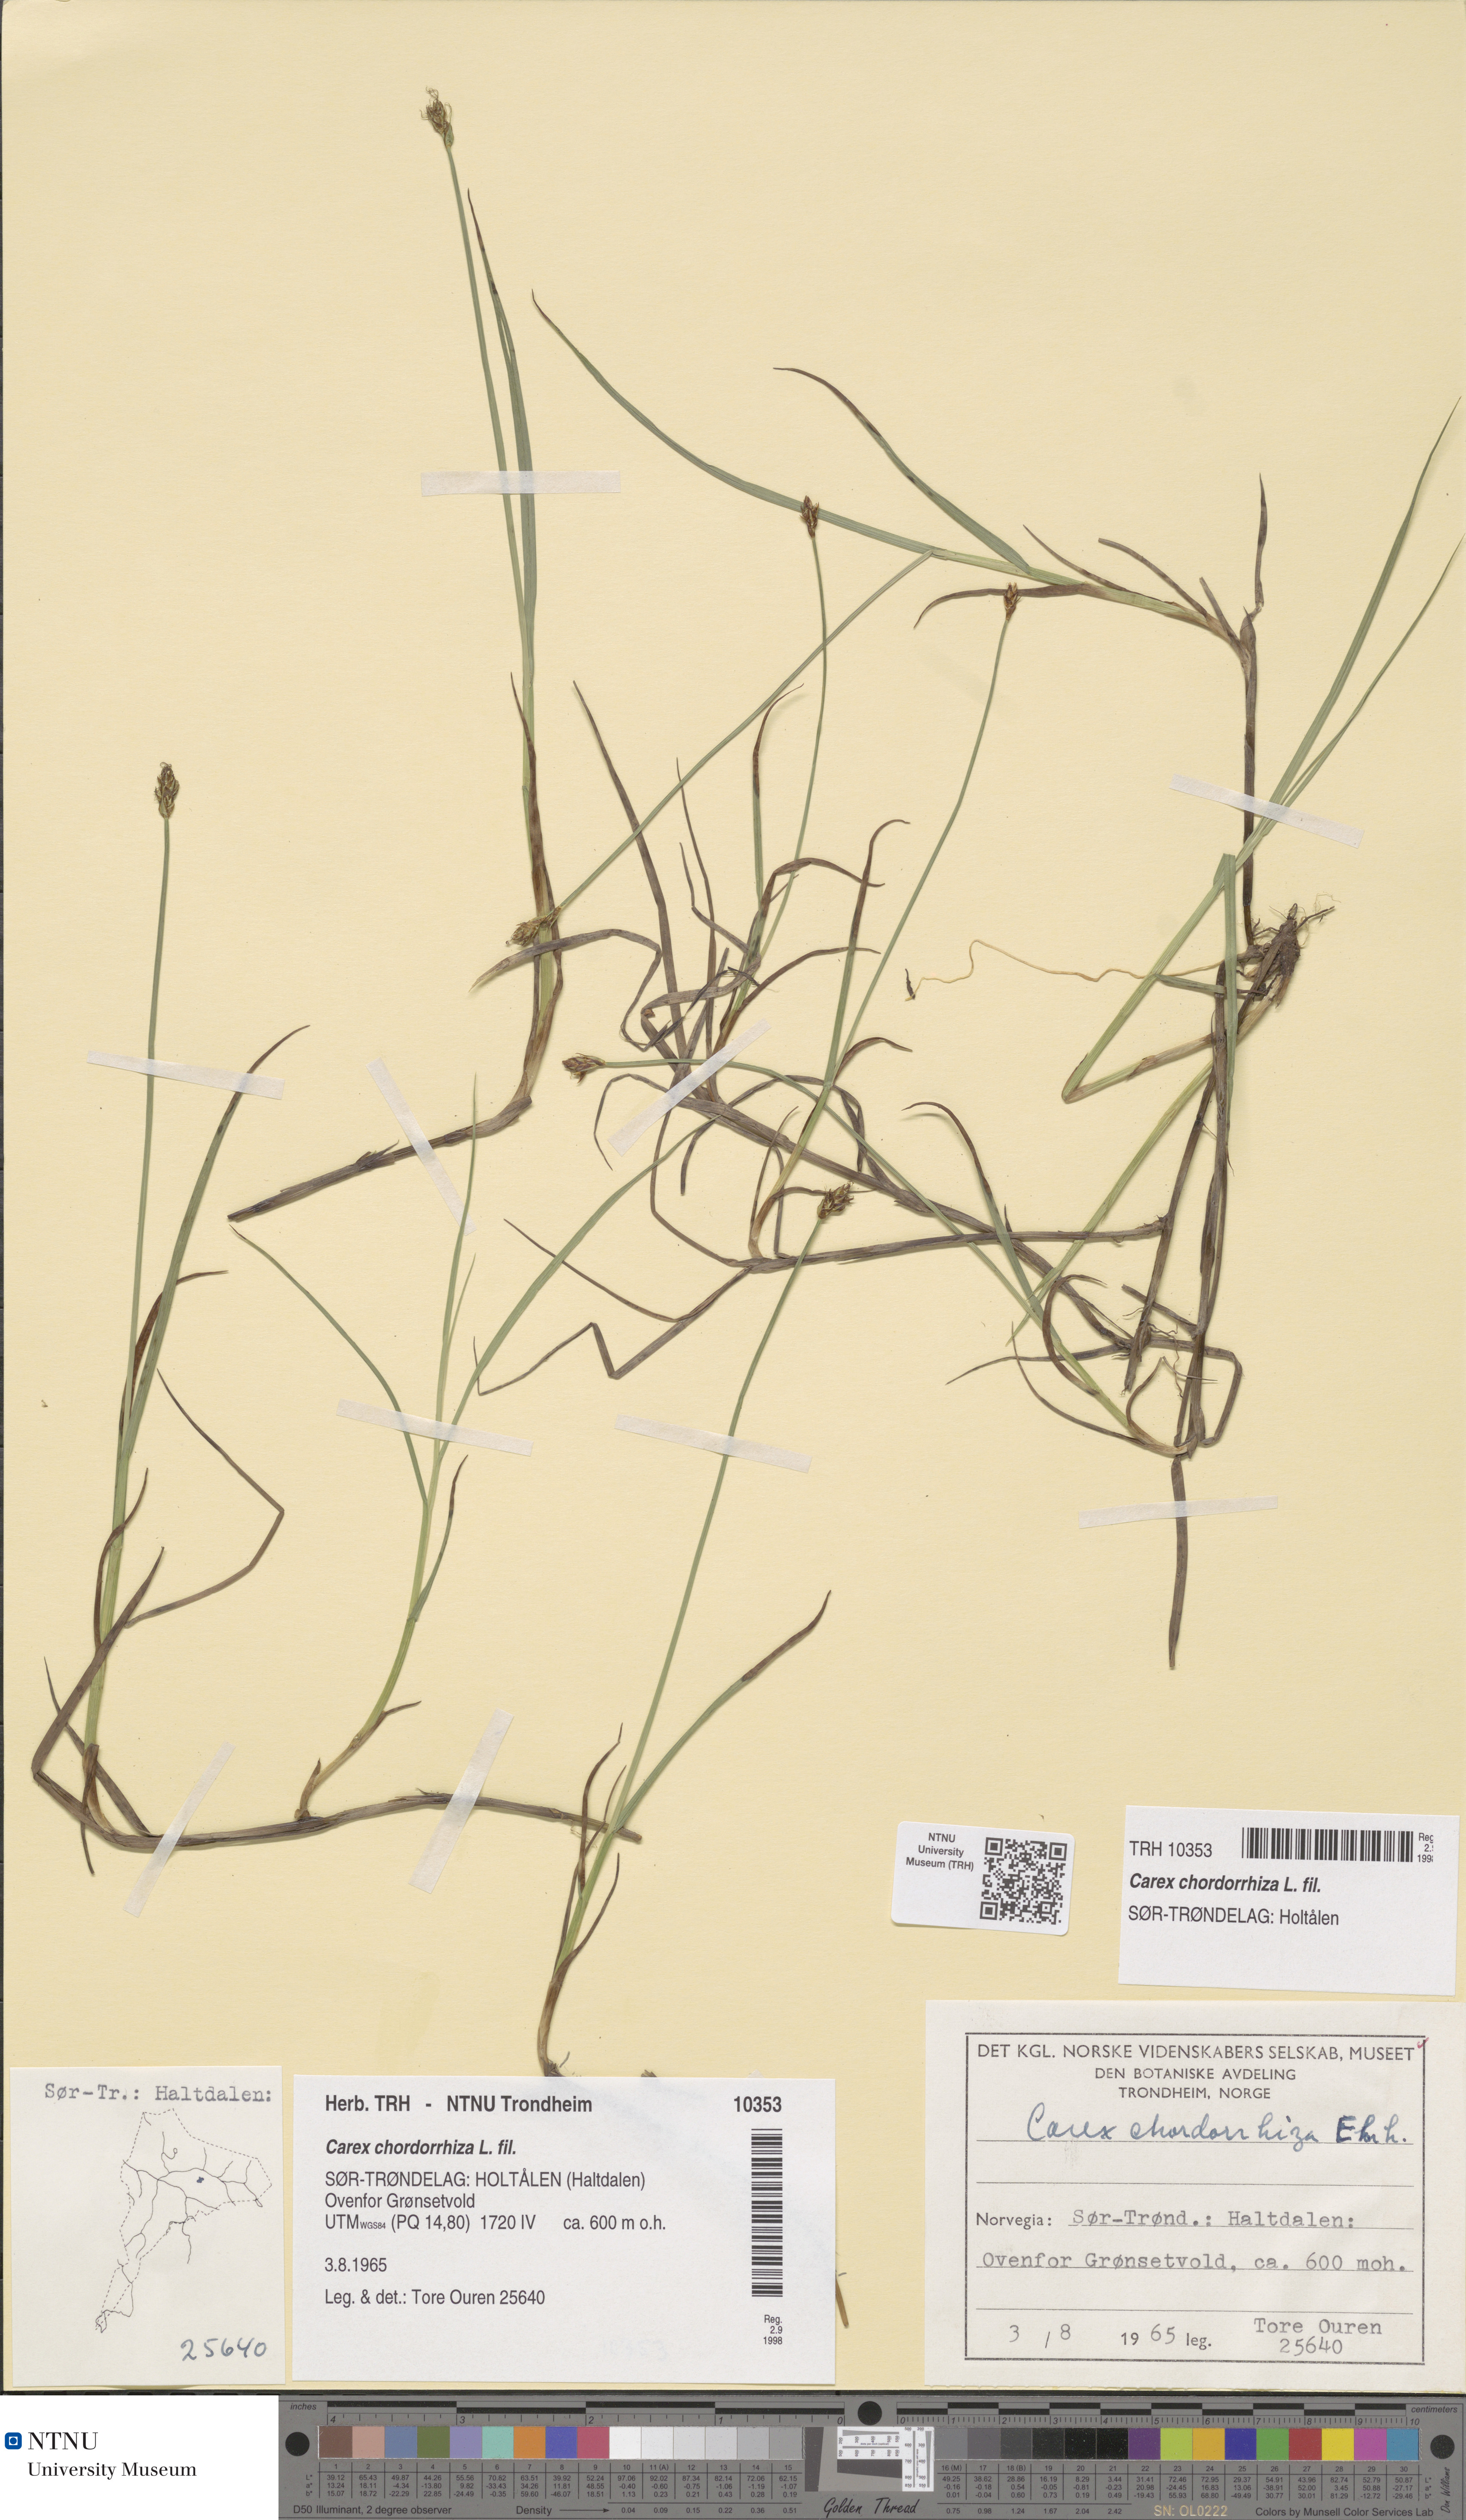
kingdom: Plantae
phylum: Tracheophyta
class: Liliopsida
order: Poales
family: Cyperaceae
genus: Carex
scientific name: Carex chordorrhiza
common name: String sedge
